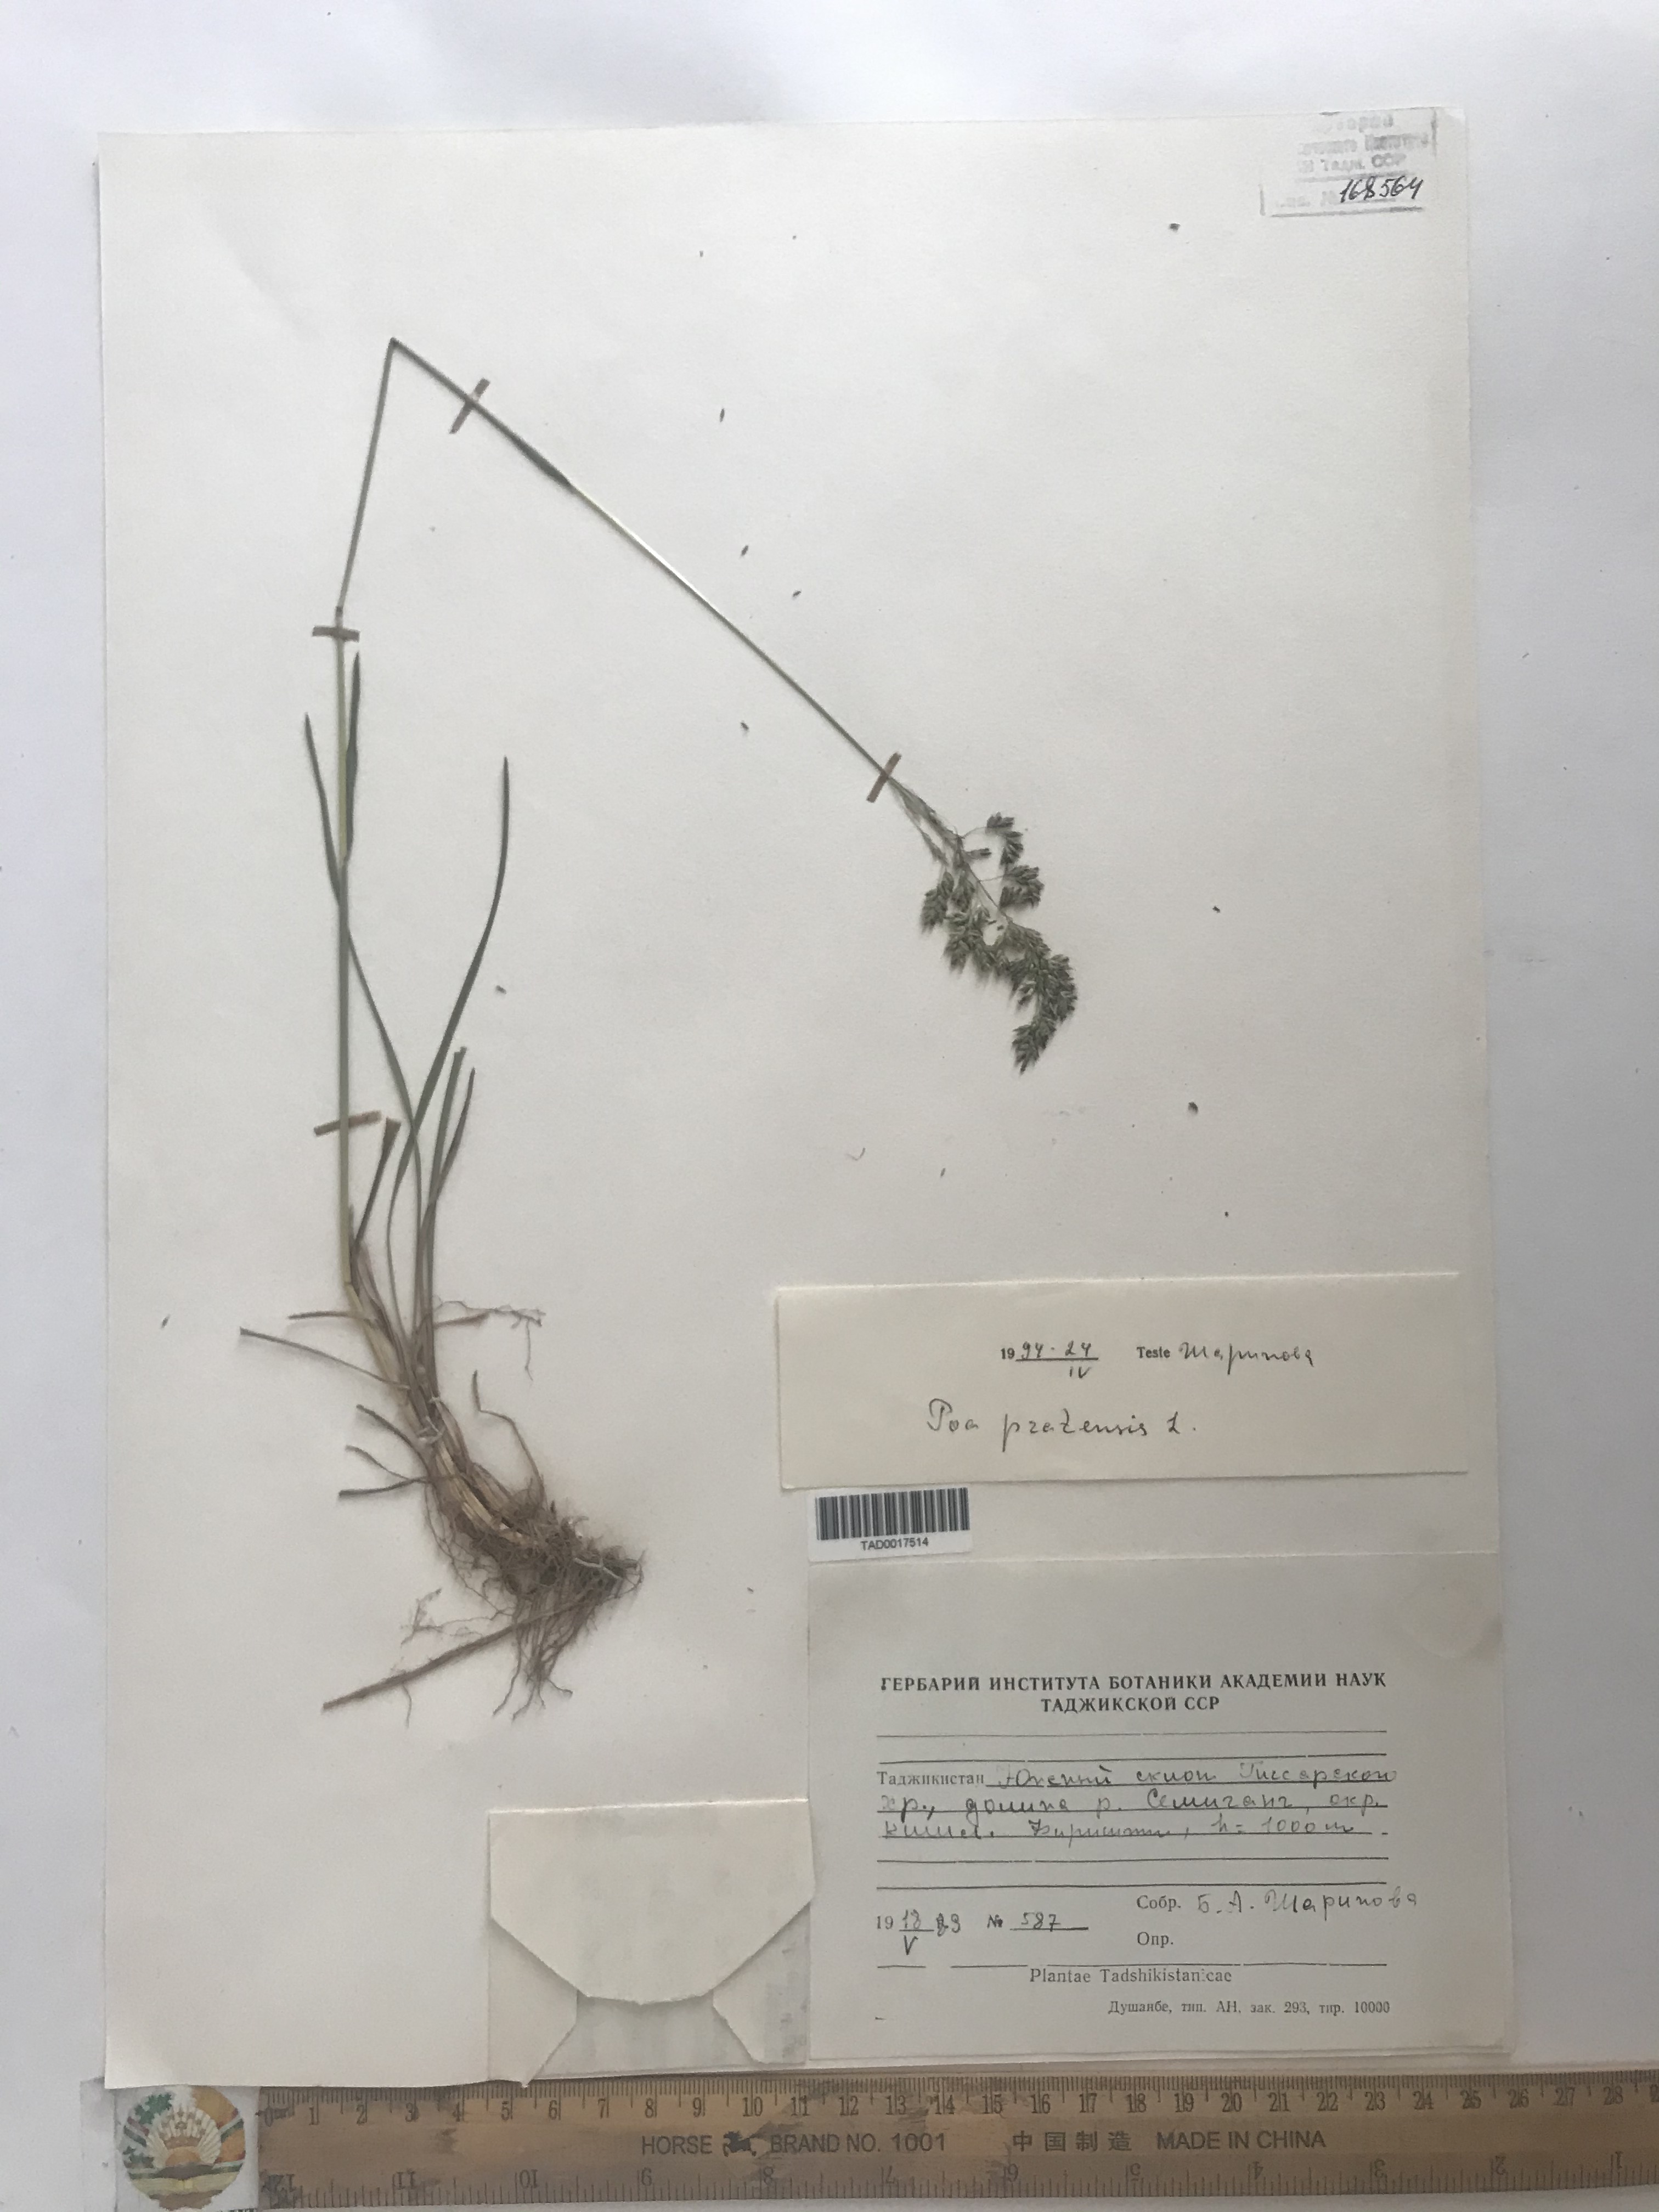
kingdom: Plantae
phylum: Tracheophyta
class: Liliopsida
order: Poales
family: Poaceae
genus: Poa
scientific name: Poa pratensis
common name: Kentucky bluegrass
